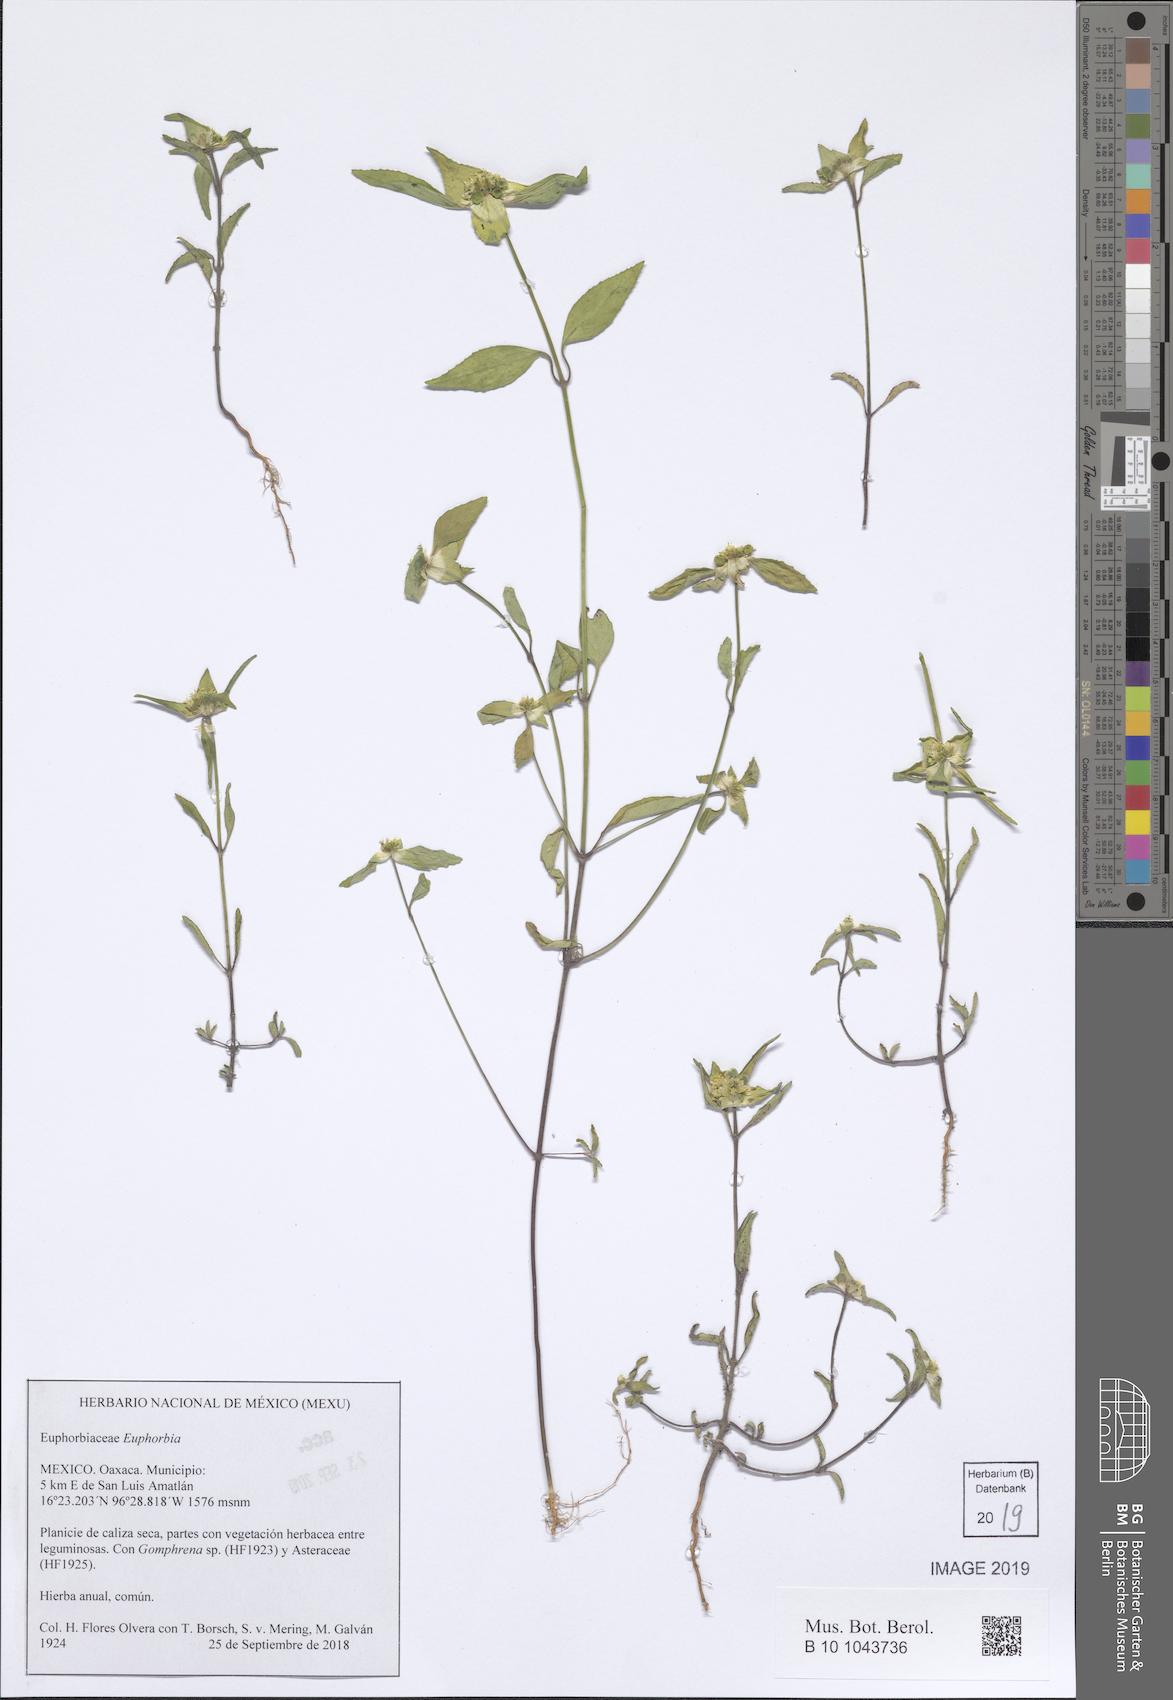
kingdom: Plantae
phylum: Tracheophyta
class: Magnoliopsida
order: Malpighiales
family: Euphorbiaceae
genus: Euphorbia
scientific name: Euphorbia
